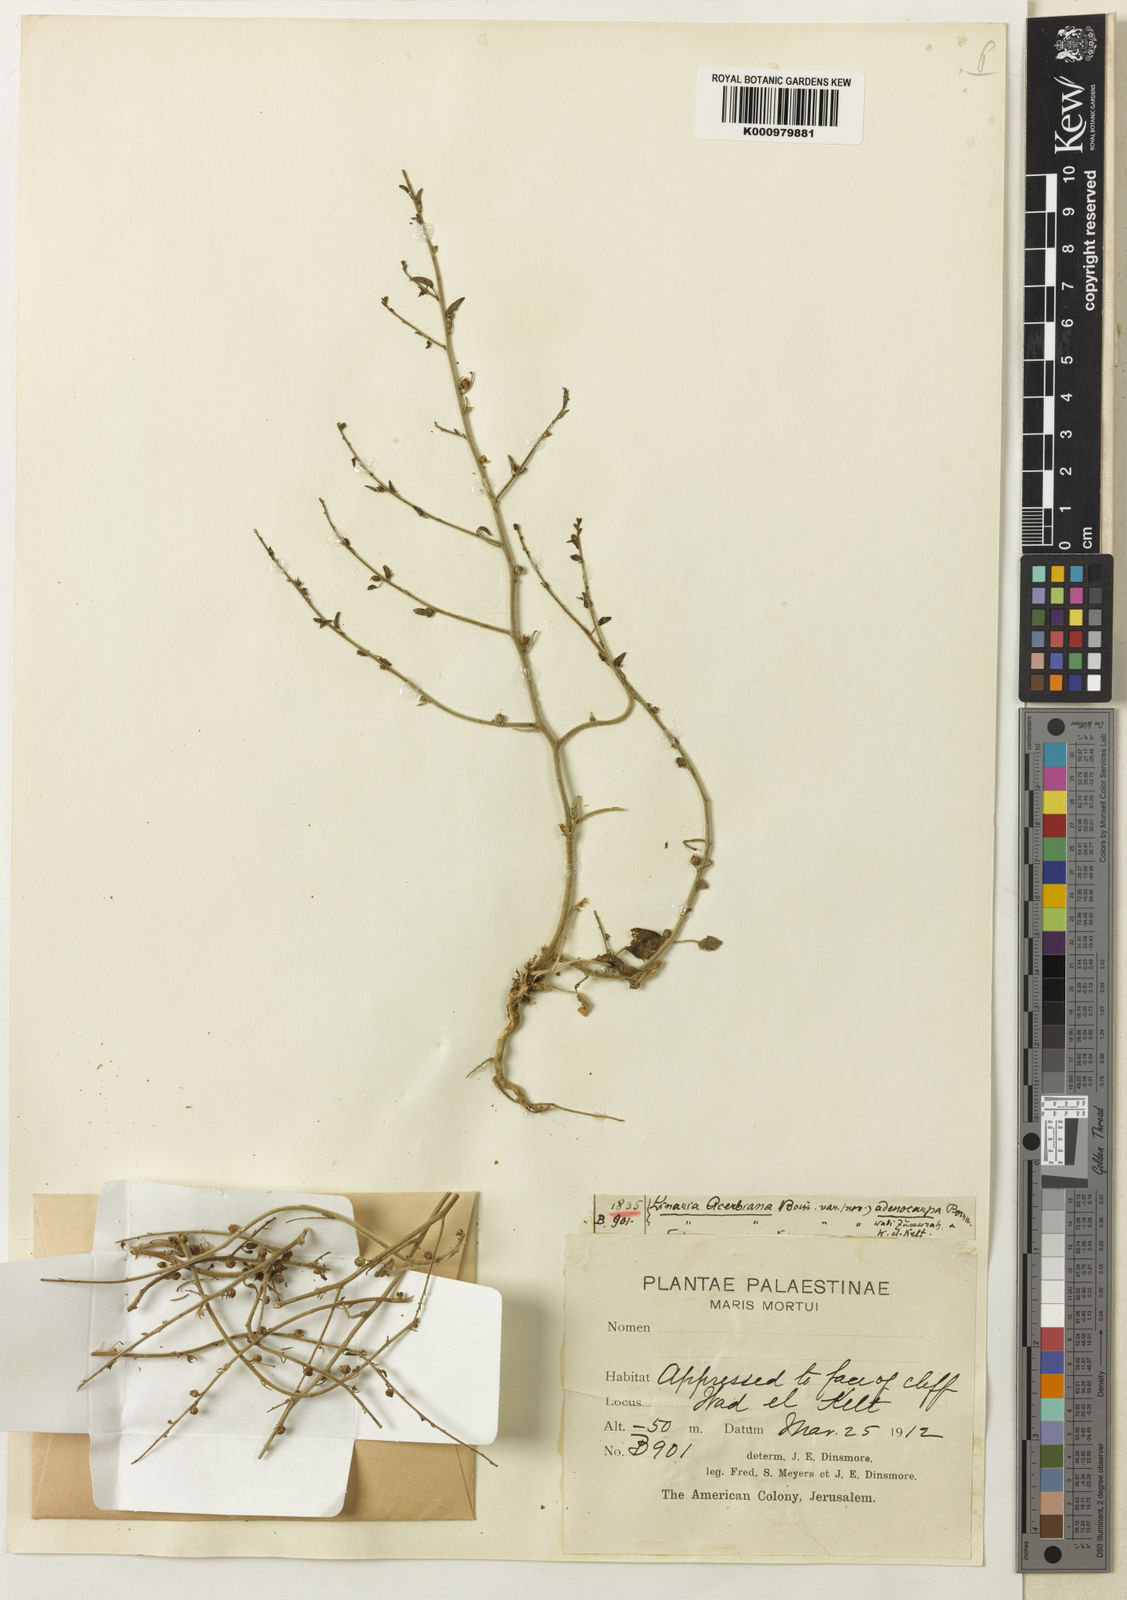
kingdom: Plantae
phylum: Tracheophyta
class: Magnoliopsida
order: Lamiales
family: Plantaginaceae
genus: Nanorrhinum
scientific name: Nanorrhinum acerbianum
